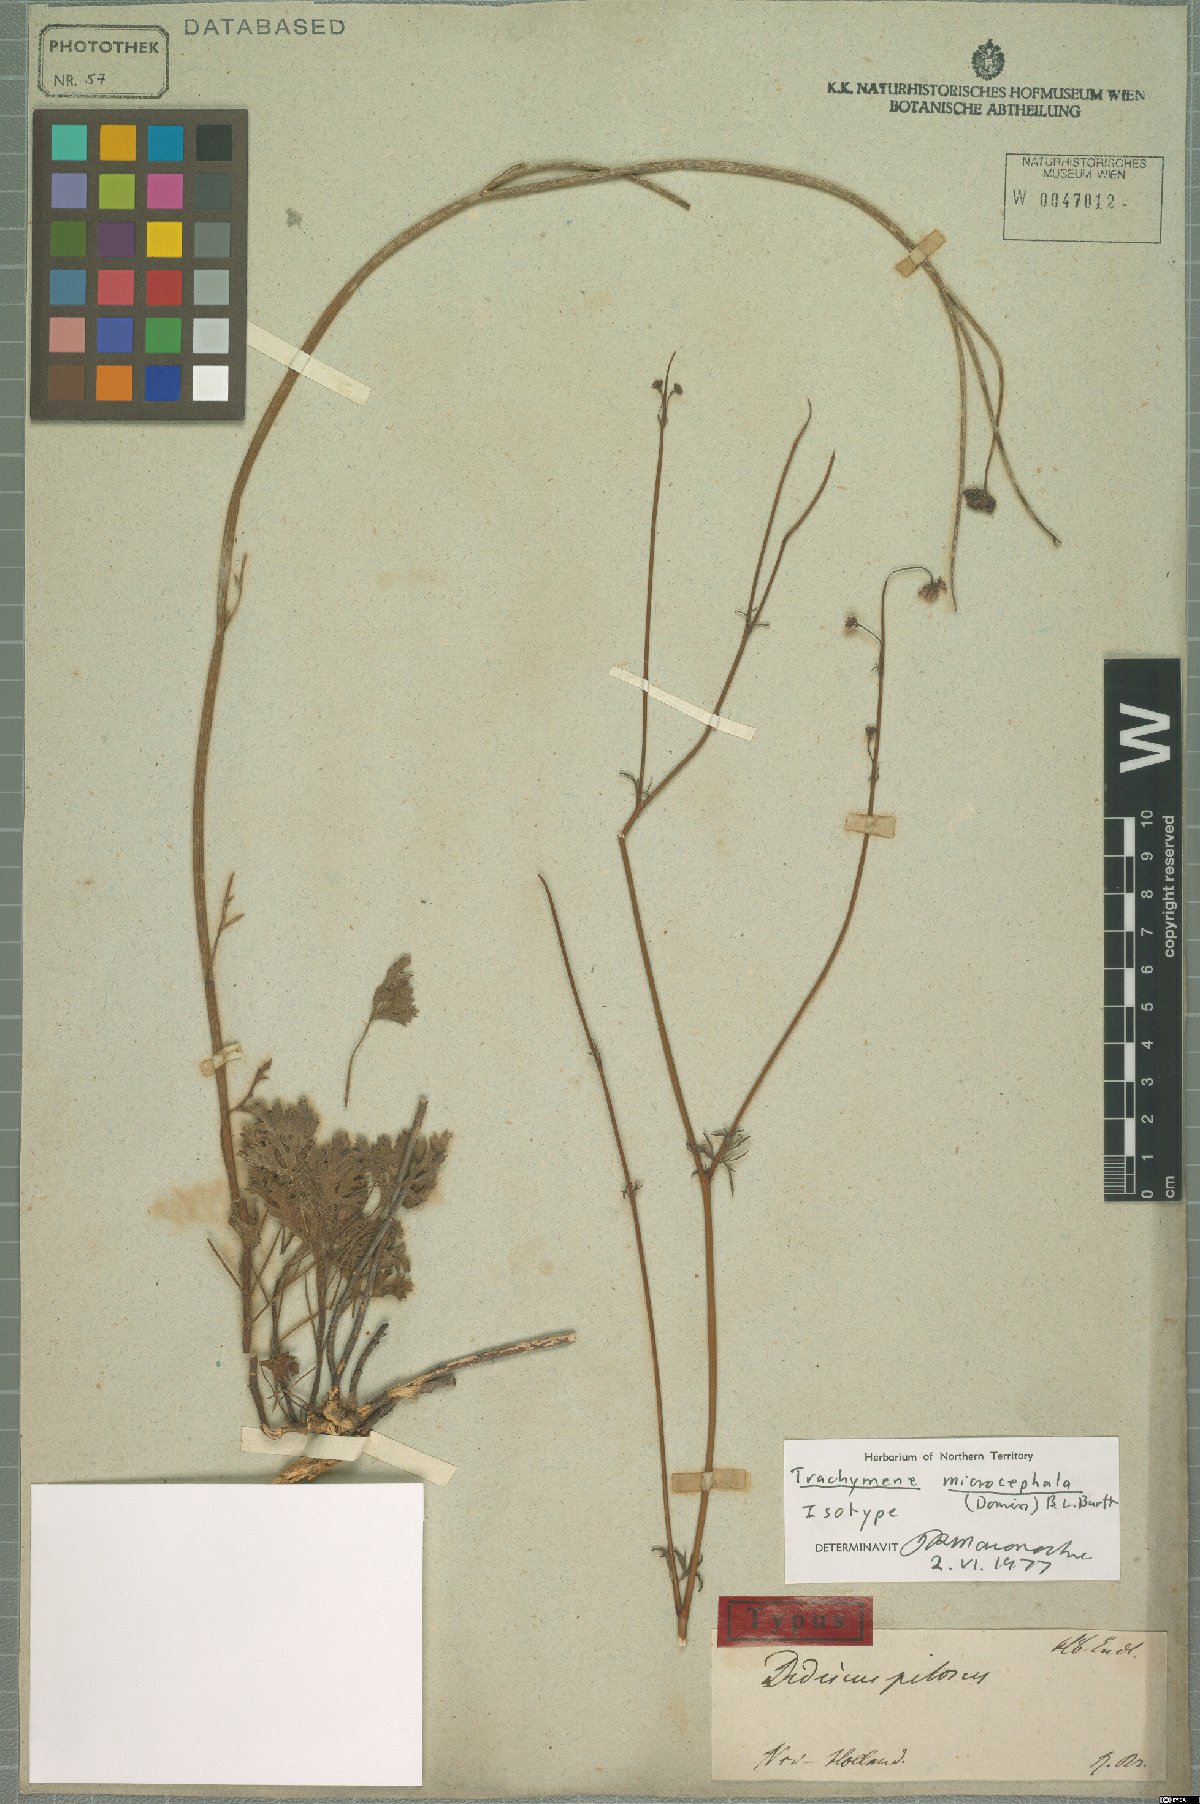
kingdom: Plantae
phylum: Tracheophyta
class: Magnoliopsida
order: Apiales
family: Araliaceae
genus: Trachymene
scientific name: Trachymene microcephala
